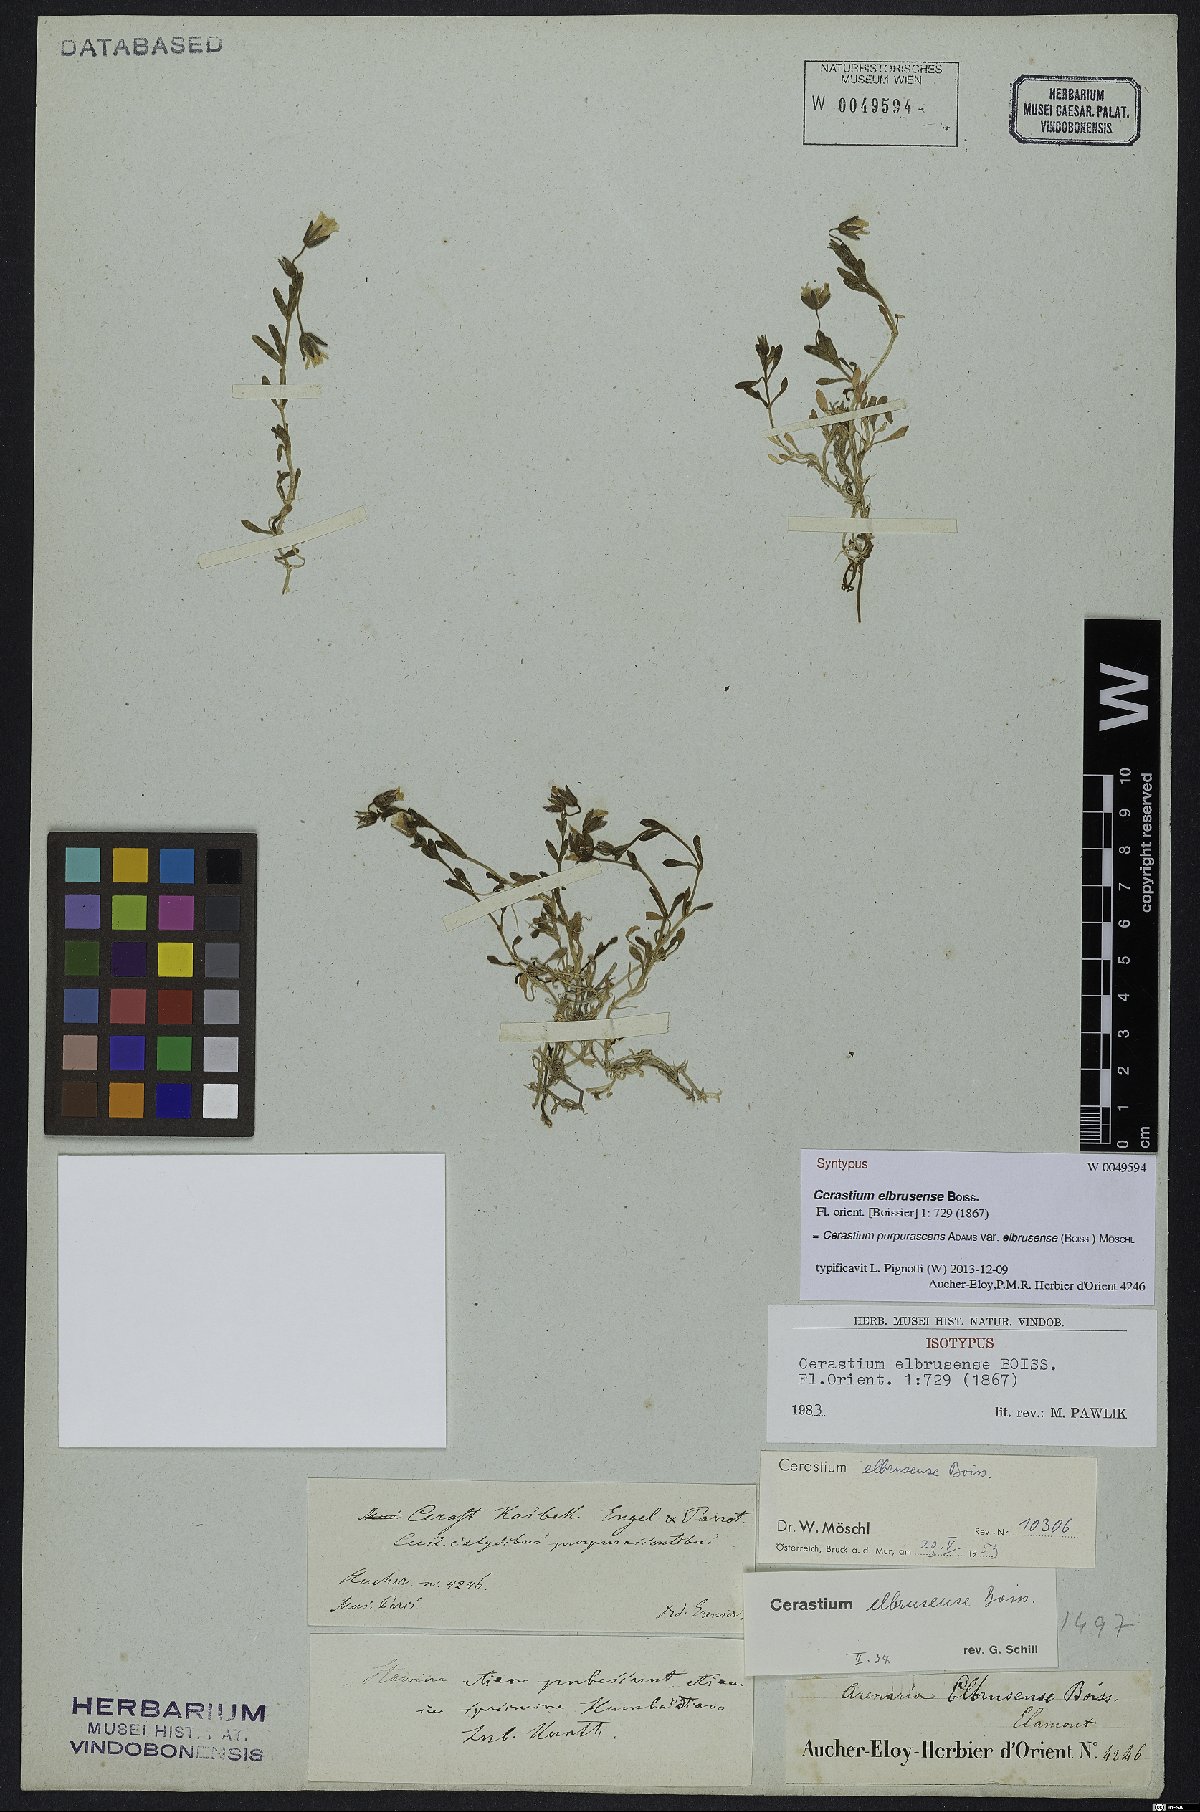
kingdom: Plantae
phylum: Tracheophyta
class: Magnoliopsida
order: Caryophyllales
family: Caryophyllaceae
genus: Cerastium
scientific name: Cerastium elbrusense
